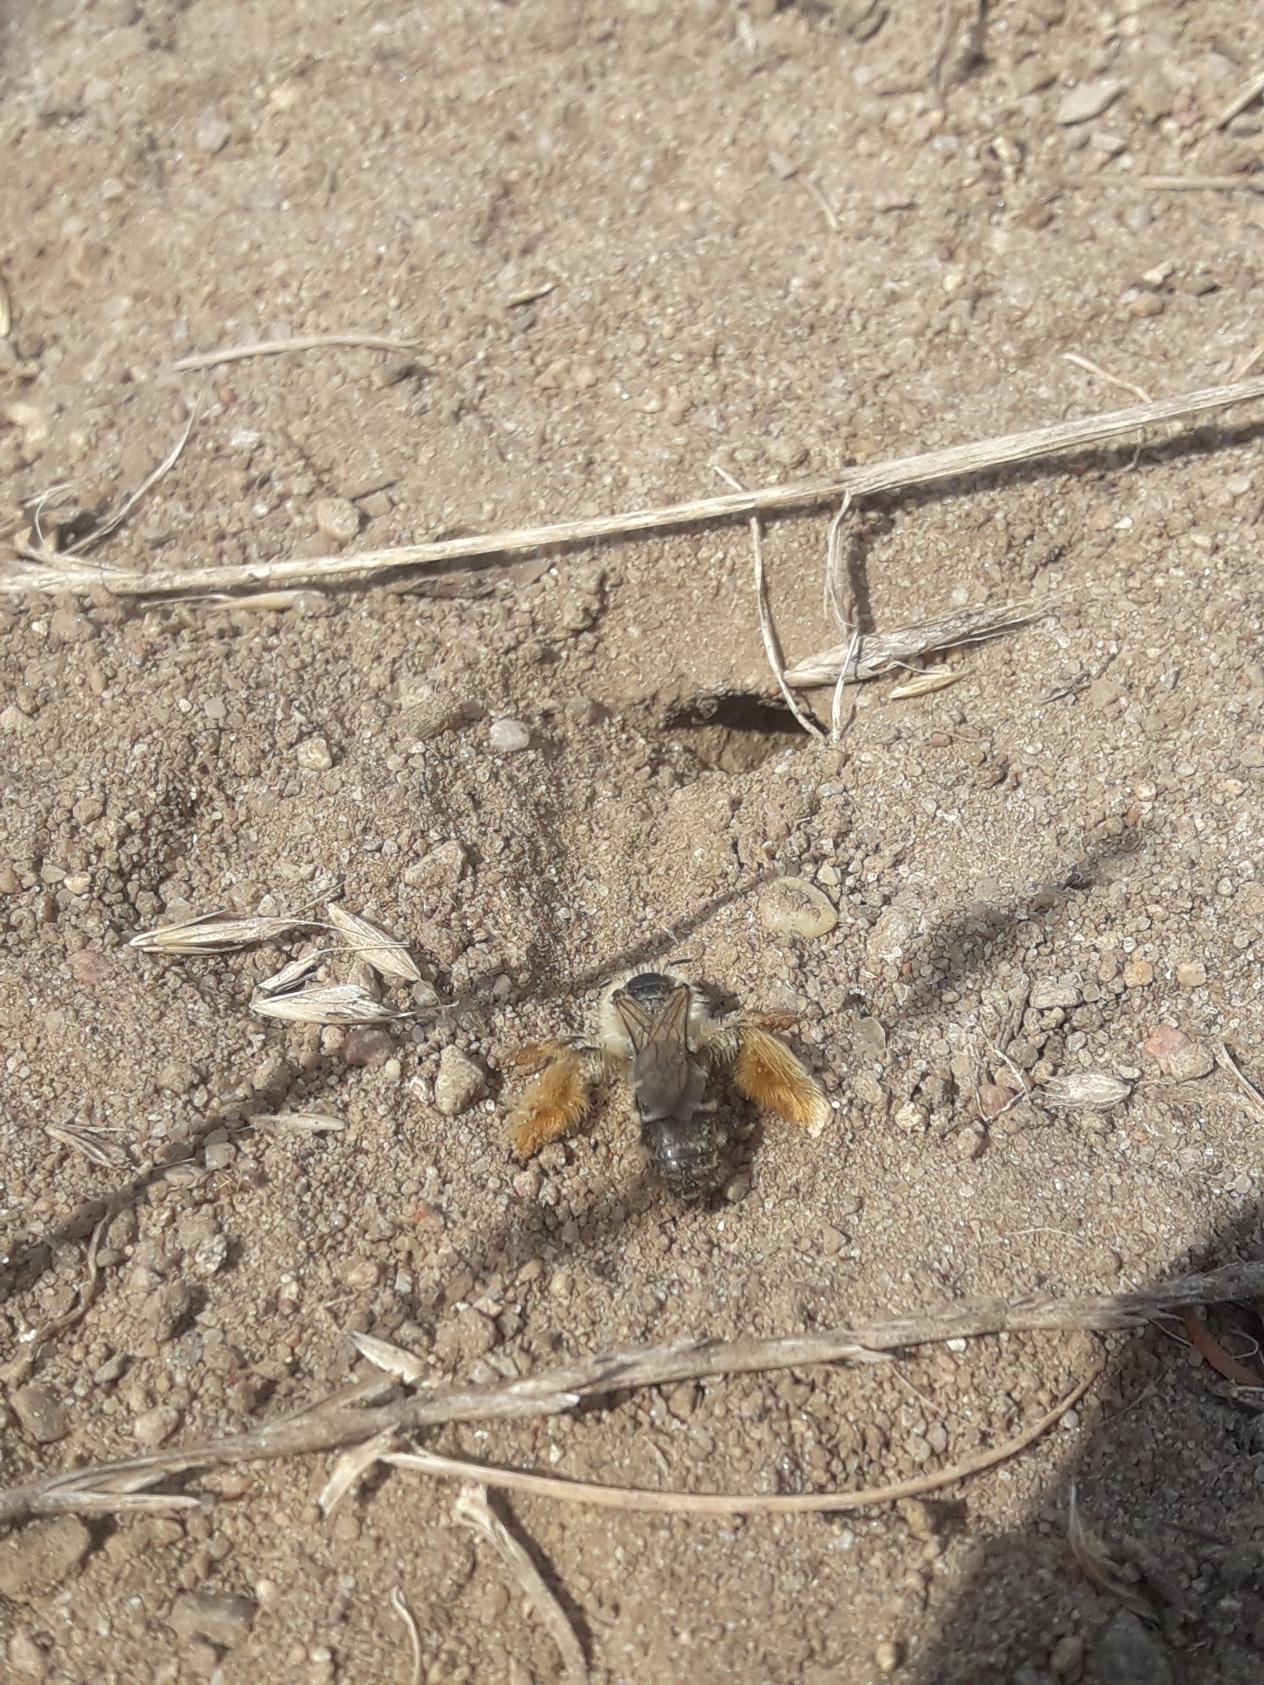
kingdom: Animalia
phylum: Arthropoda
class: Insecta
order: Hymenoptera
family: Melittidae
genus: Dasypoda
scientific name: Dasypoda hirtipes
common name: Pragtbuksebi
